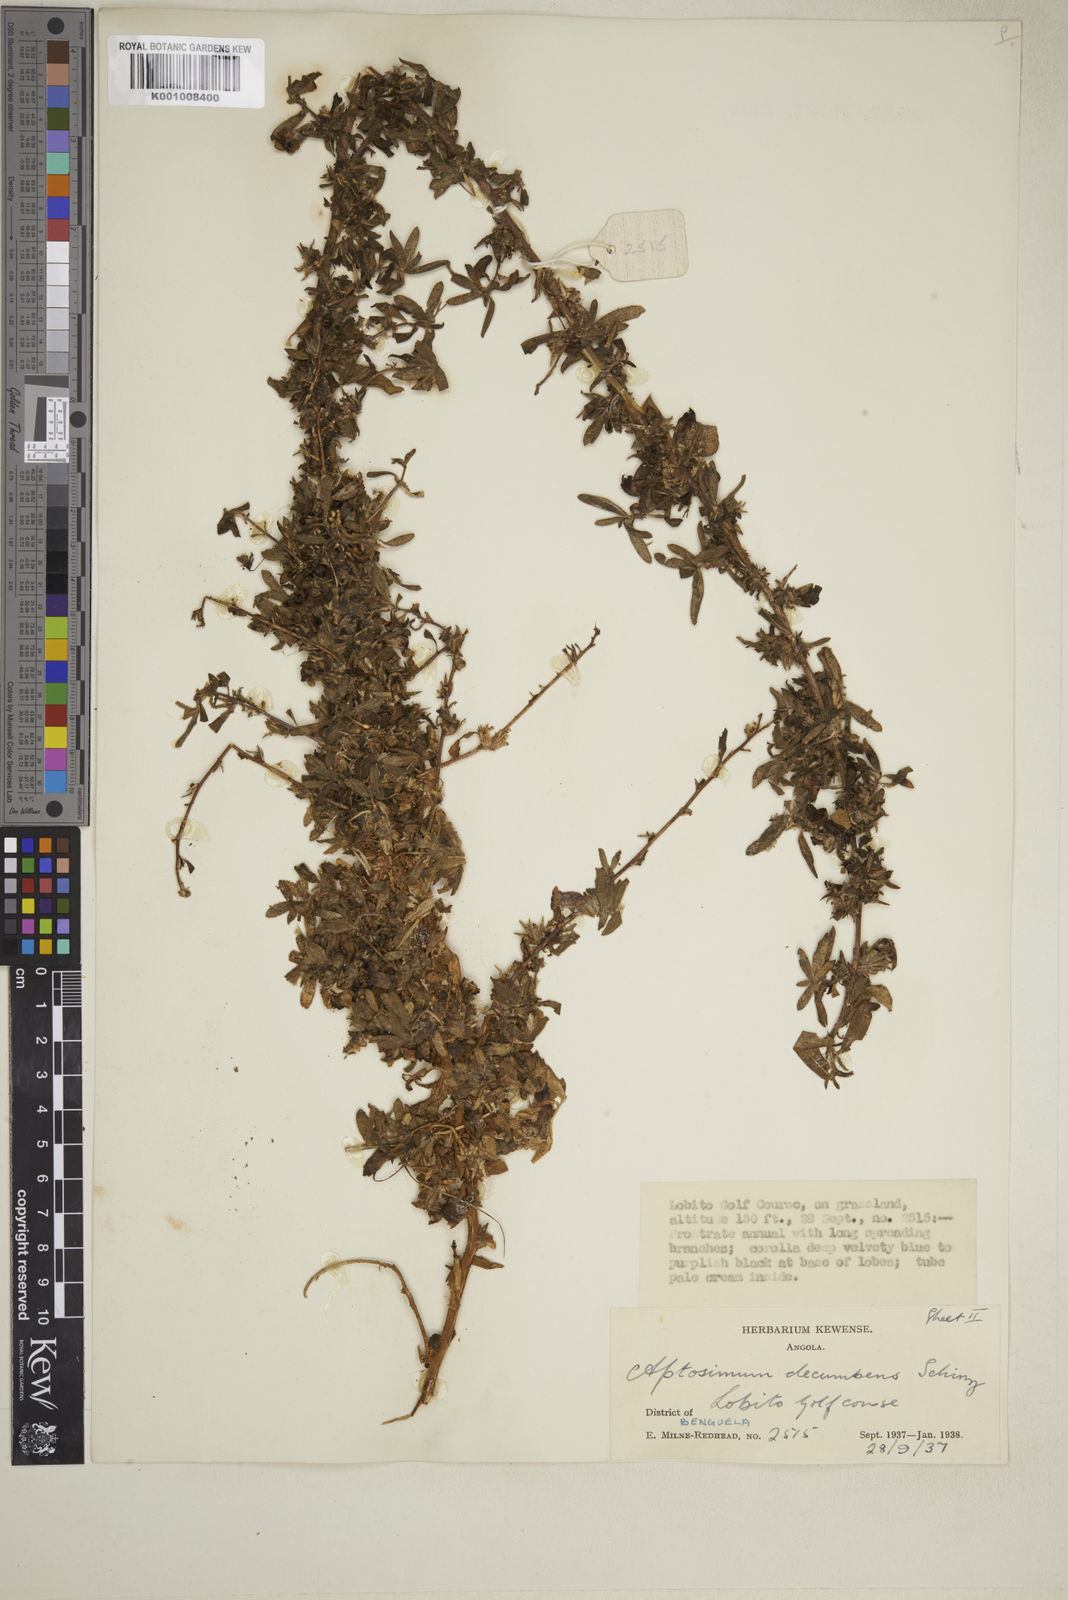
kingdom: Plantae
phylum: Tracheophyta
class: Magnoliopsida
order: Lamiales
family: Scrophulariaceae
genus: Aptosimum
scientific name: Aptosimum decumbens
